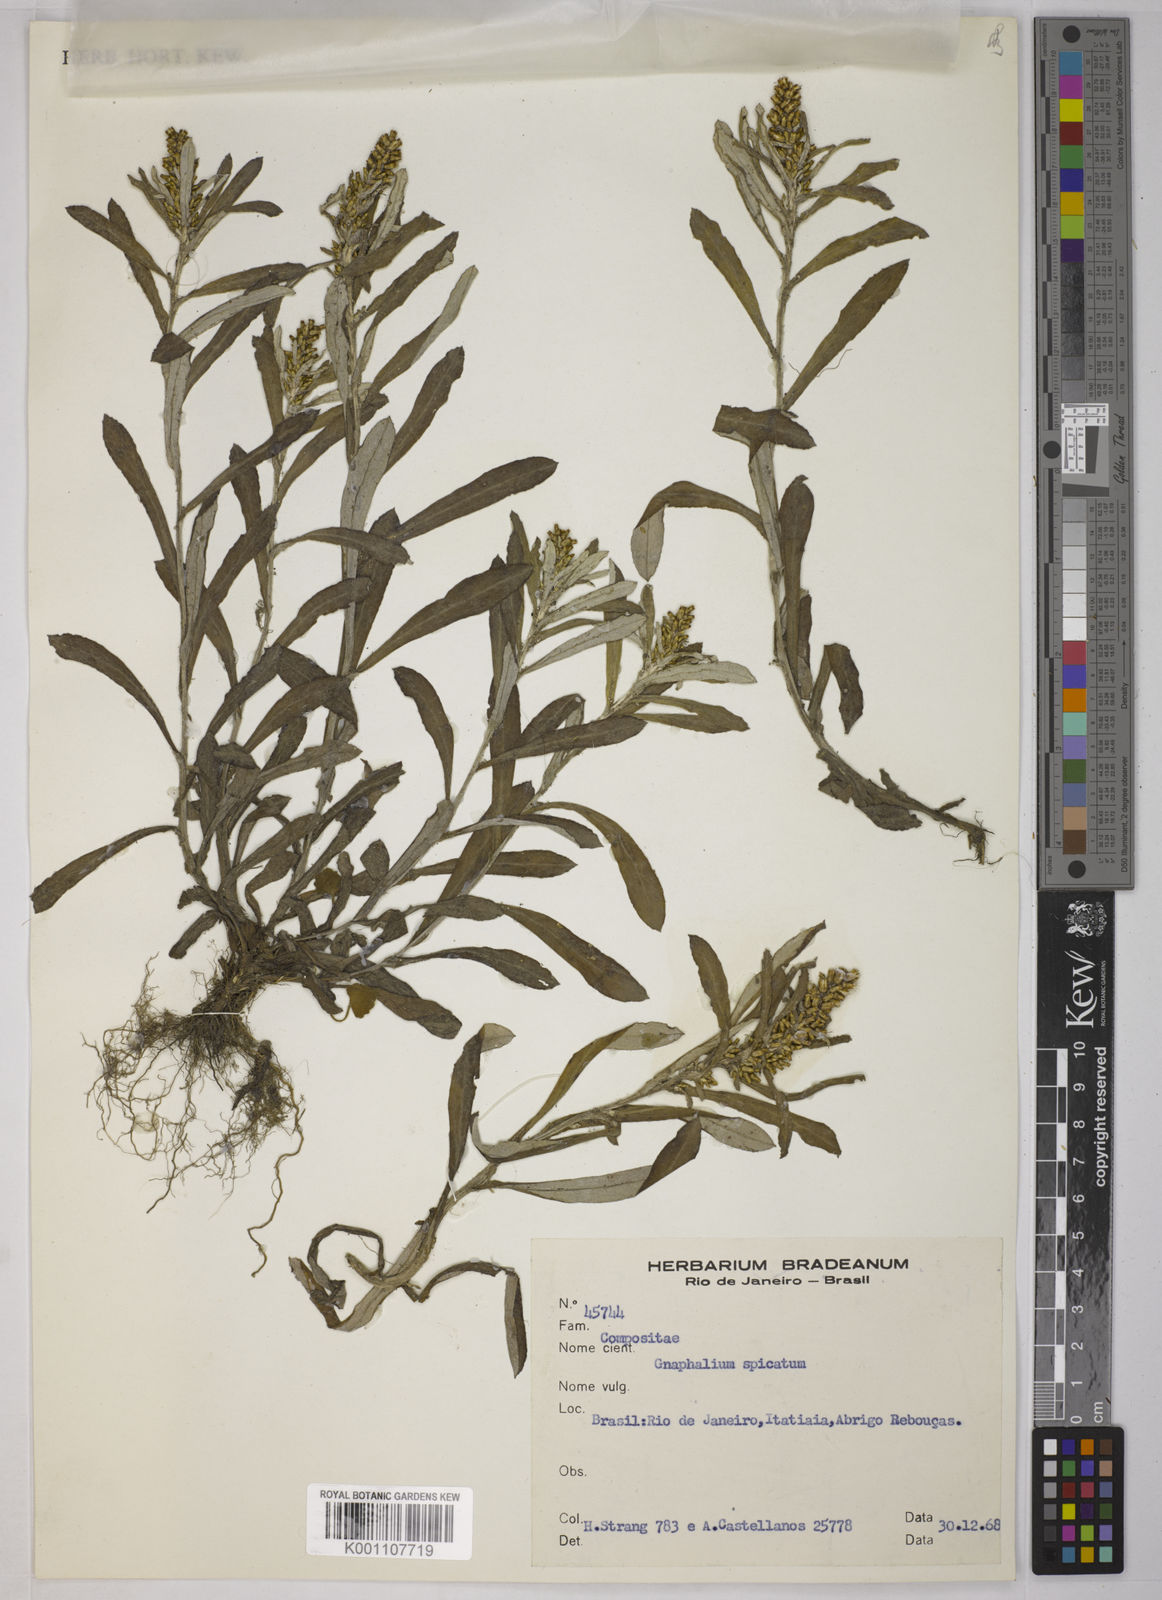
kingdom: Plantae
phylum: Tracheophyta
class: Magnoliopsida
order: Asterales
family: Asteraceae
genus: Gnaphalium
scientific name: Gnaphalium
